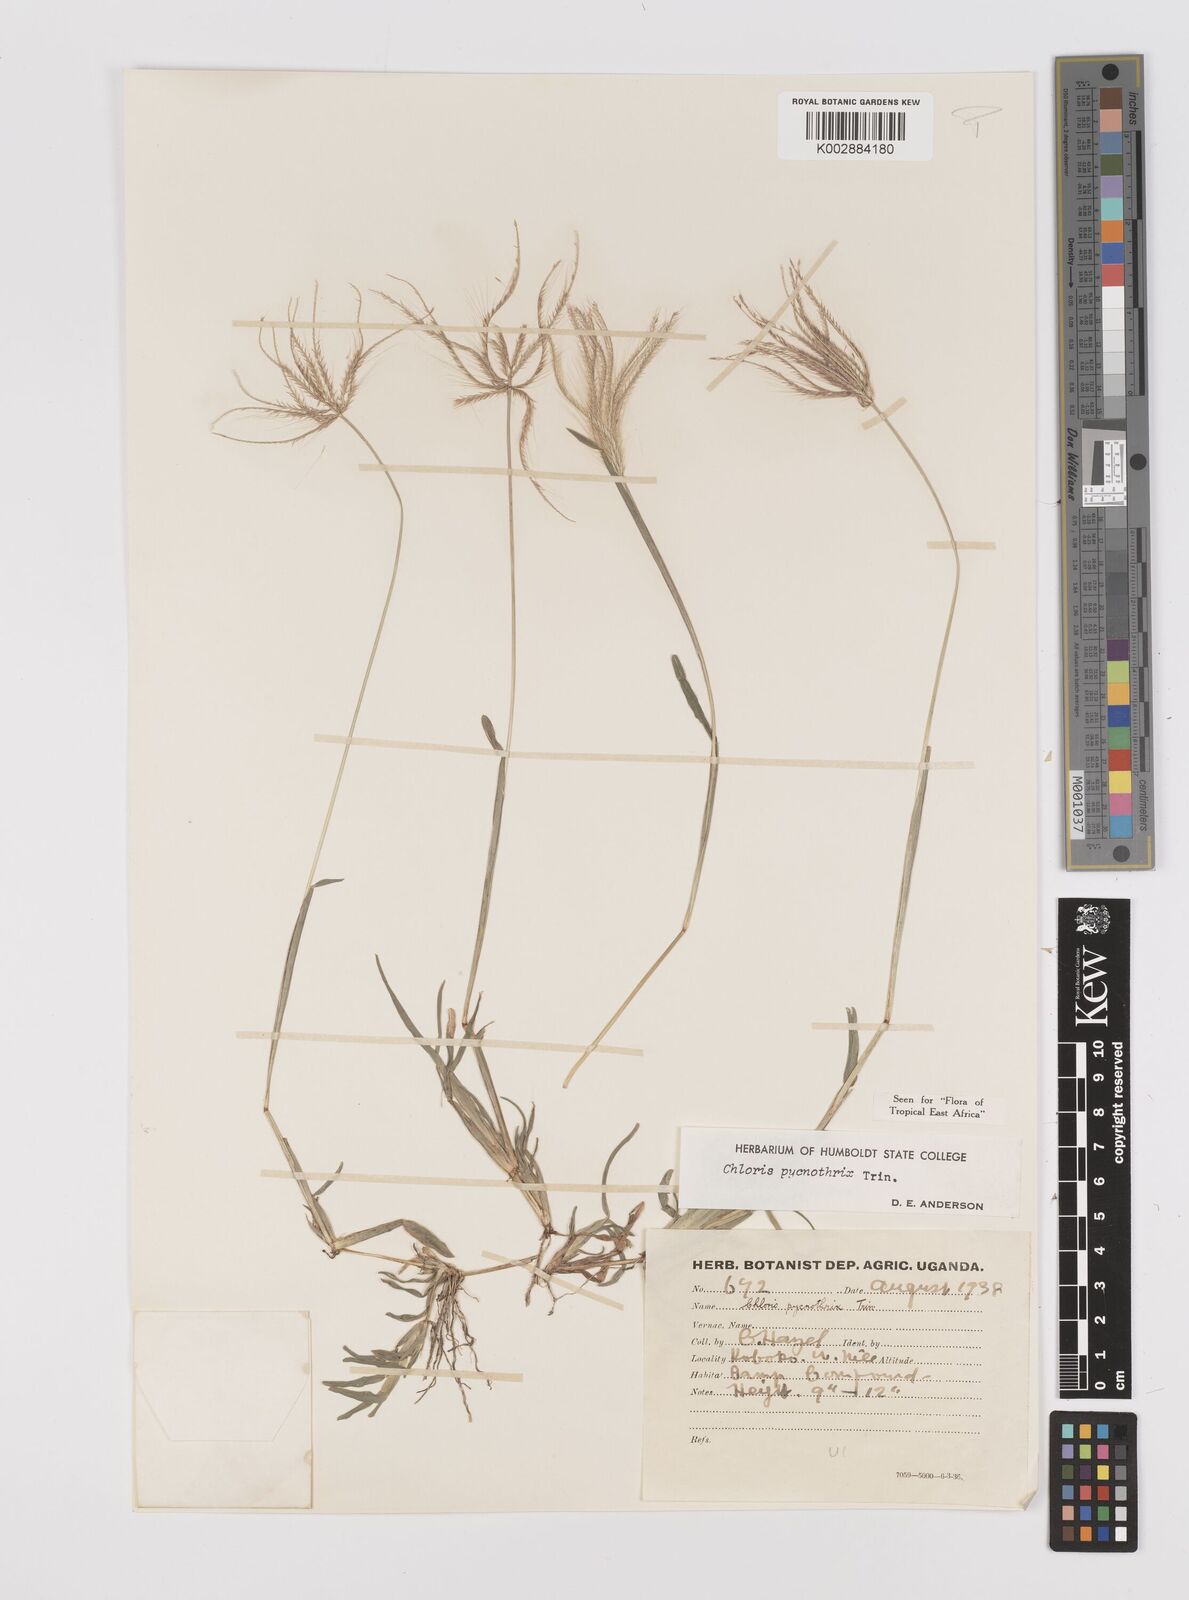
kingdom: Plantae
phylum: Tracheophyta
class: Liliopsida
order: Poales
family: Poaceae
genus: Chloris
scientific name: Chloris pycnothrix
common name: Spiderweb chloris
